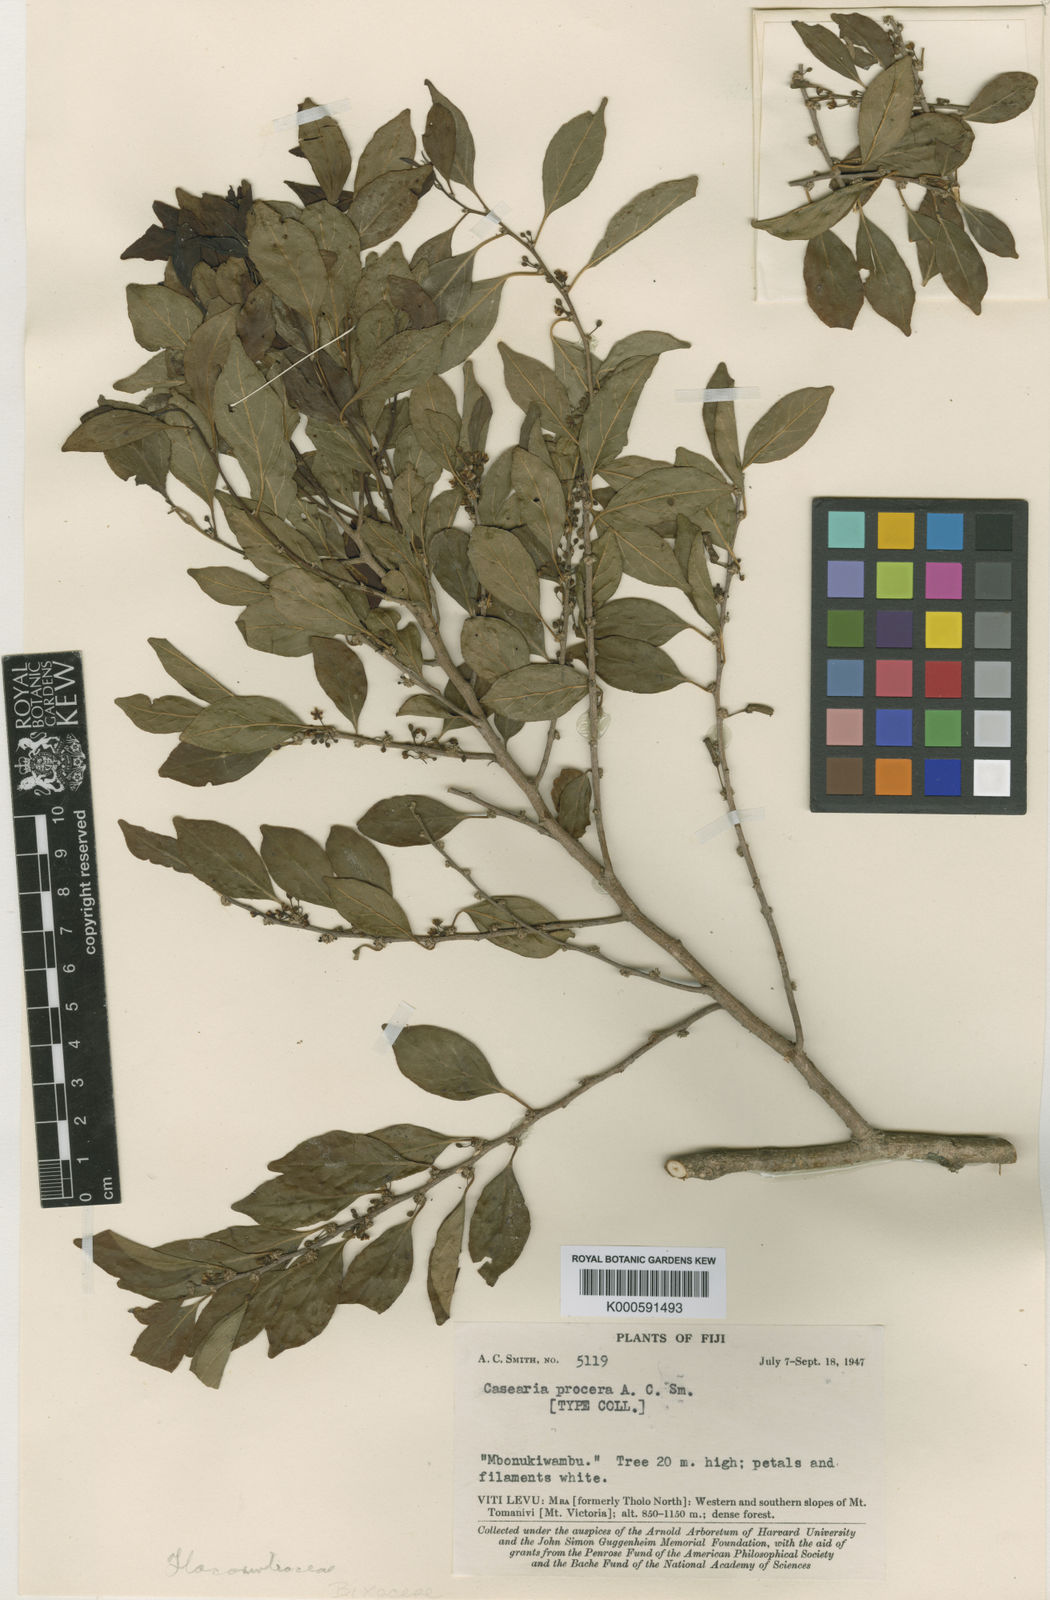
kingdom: Plantae
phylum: Tracheophyta
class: Magnoliopsida
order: Malpighiales
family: Salicaceae
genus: Casearia
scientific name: Casearia procera
